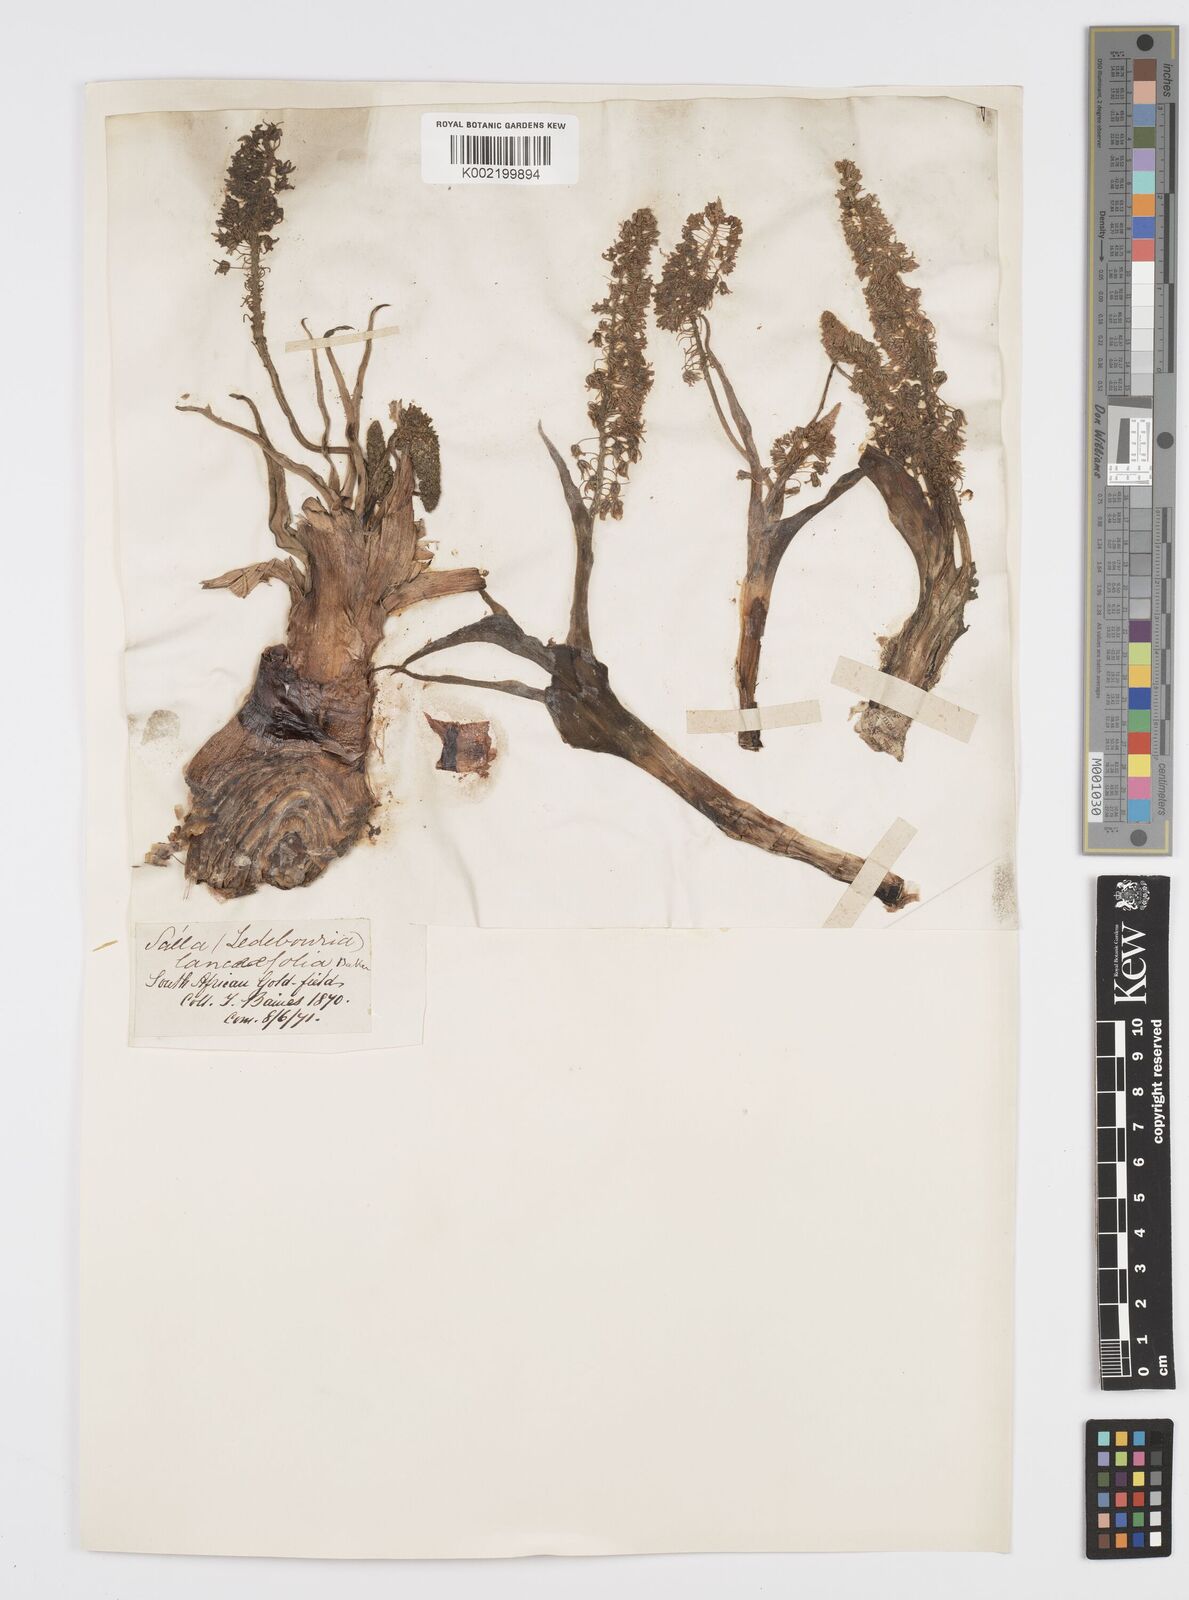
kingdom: Plantae
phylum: Tracheophyta
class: Liliopsida
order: Asparagales
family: Asparagaceae
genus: Ledebouria
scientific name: Ledebouria revoluta
